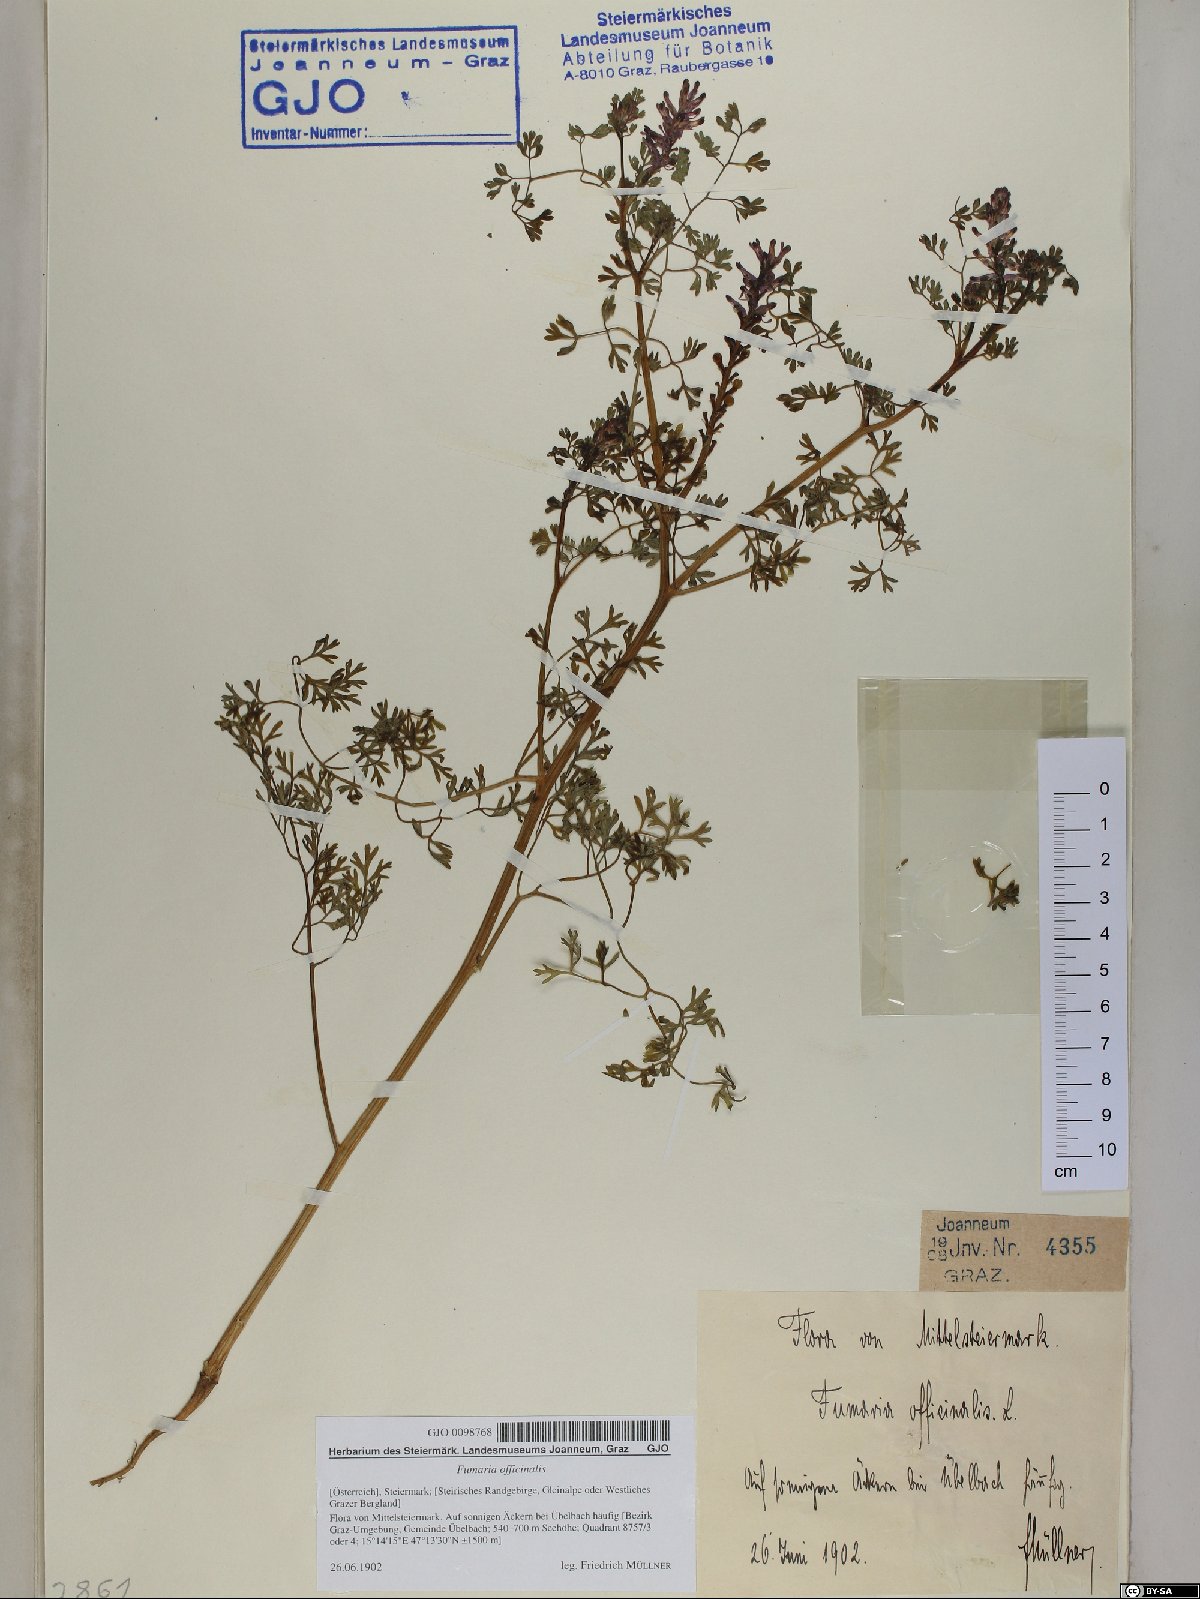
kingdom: Plantae
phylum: Tracheophyta
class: Magnoliopsida
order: Ranunculales
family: Papaveraceae
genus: Fumaria
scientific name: Fumaria officinalis
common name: Common fumitory
